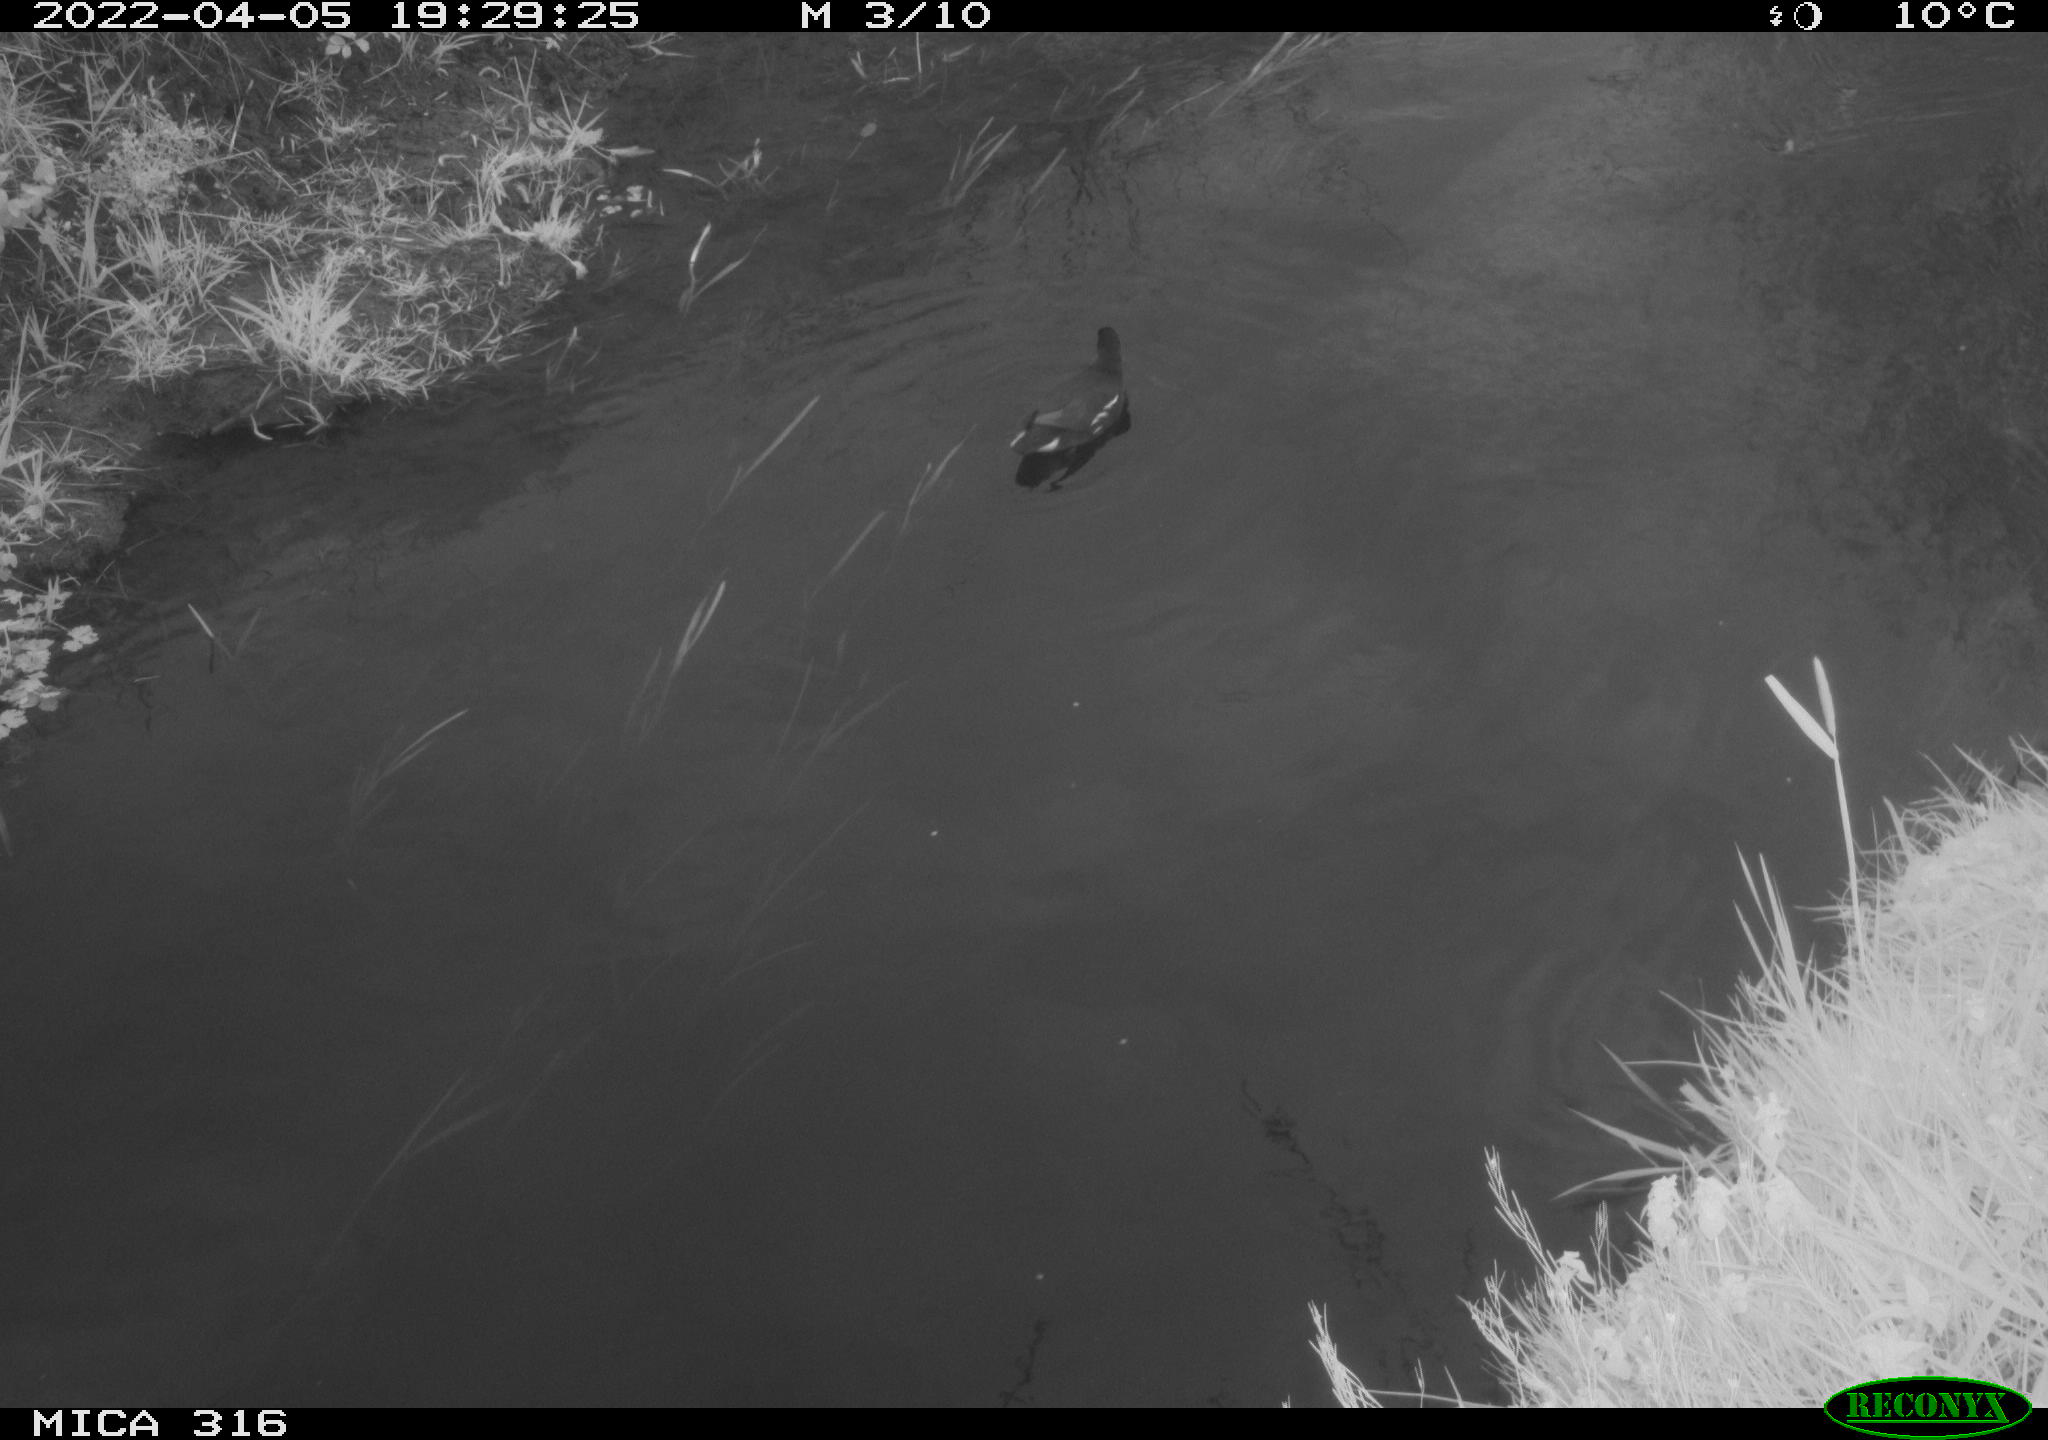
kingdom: Animalia
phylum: Chordata
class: Aves
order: Gruiformes
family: Rallidae
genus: Gallinula
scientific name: Gallinula chloropus
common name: Common moorhen
